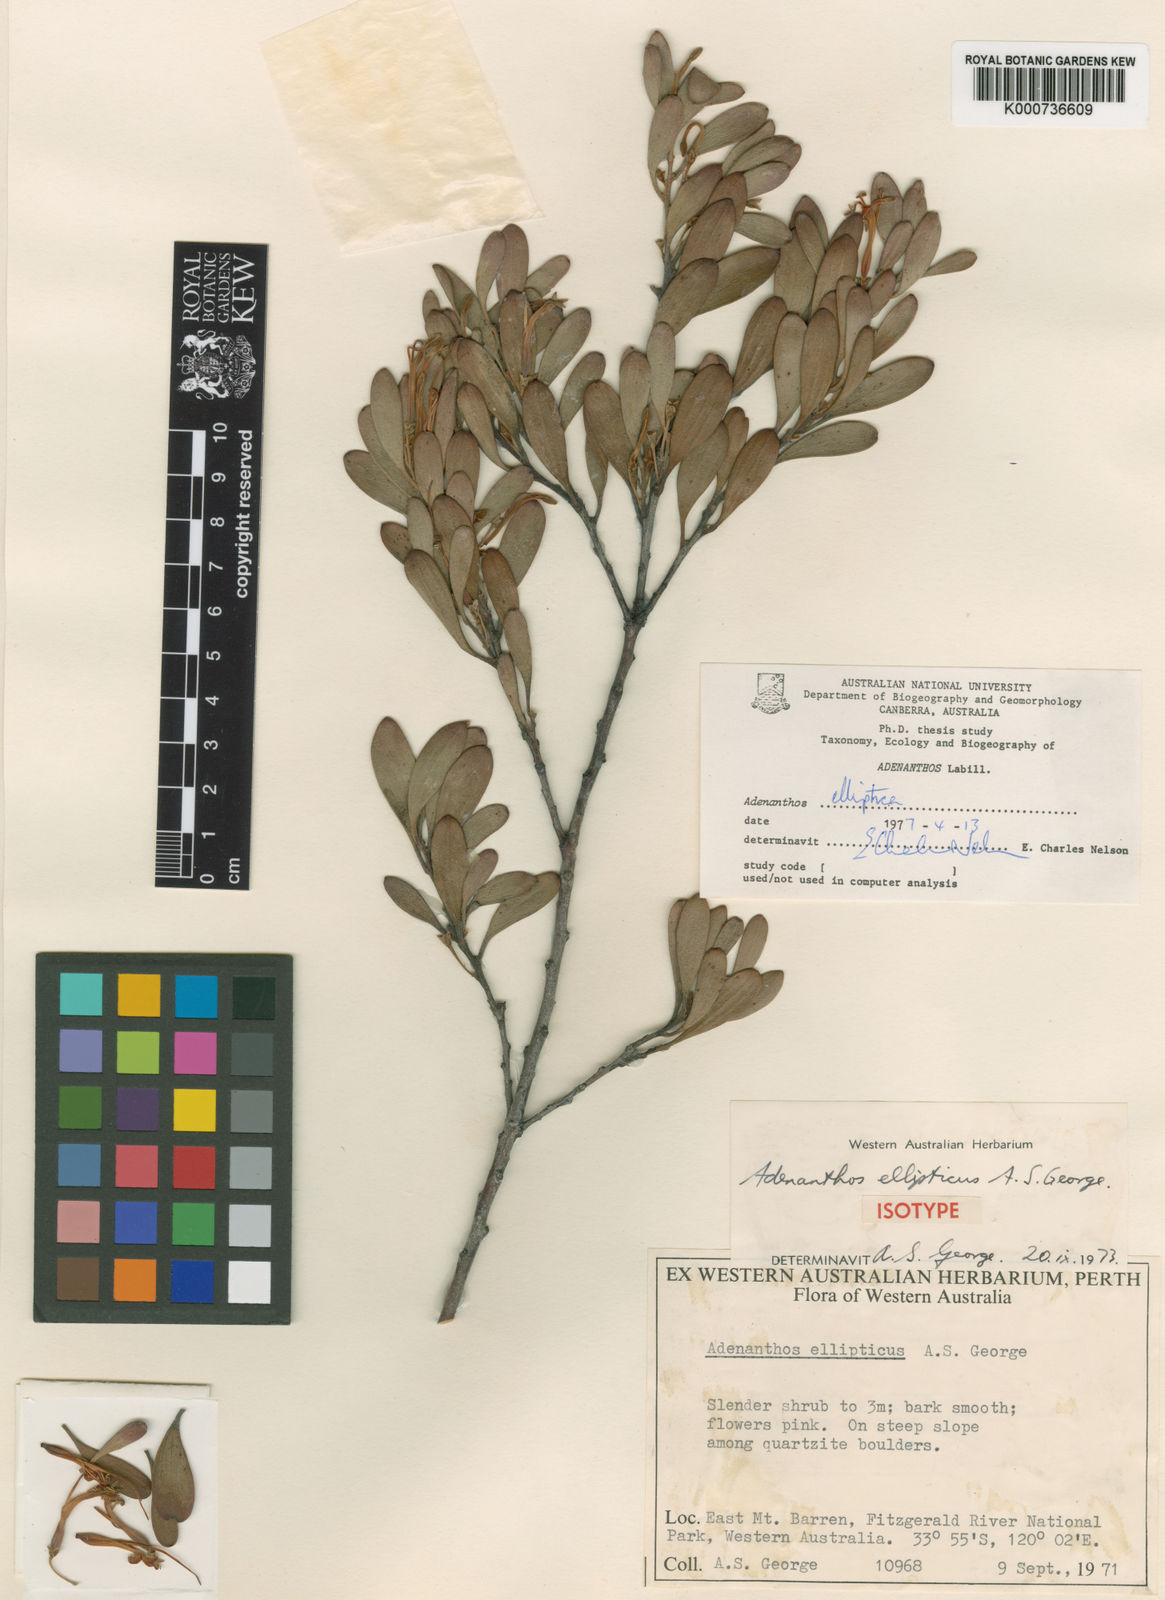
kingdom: Plantae
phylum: Tracheophyta
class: Magnoliopsida
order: Proteales
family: Proteaceae
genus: Adenanthos
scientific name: Adenanthos
